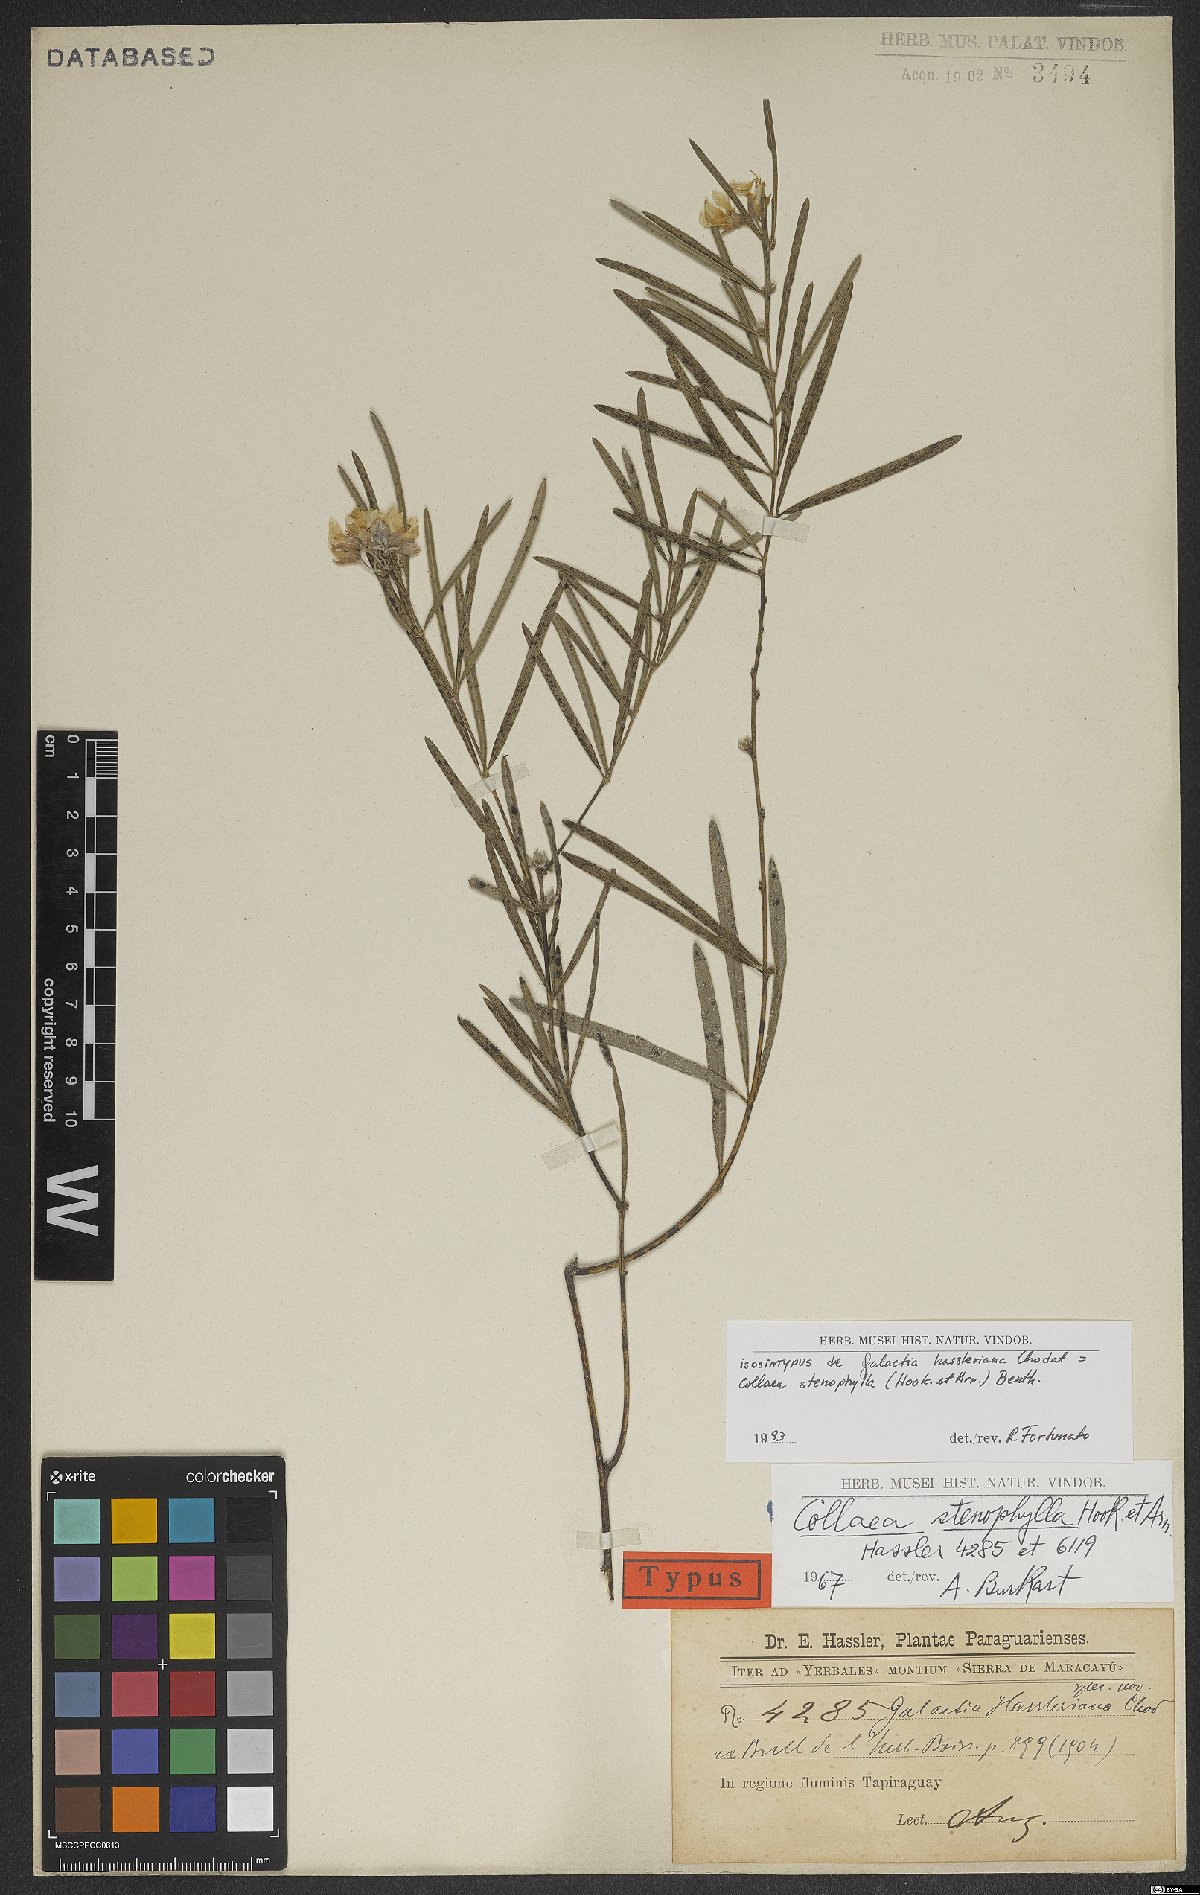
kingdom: Plantae
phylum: Tracheophyta
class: Magnoliopsida
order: Fabales
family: Fabaceae
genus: Collaea
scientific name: Collaea stenophylla
